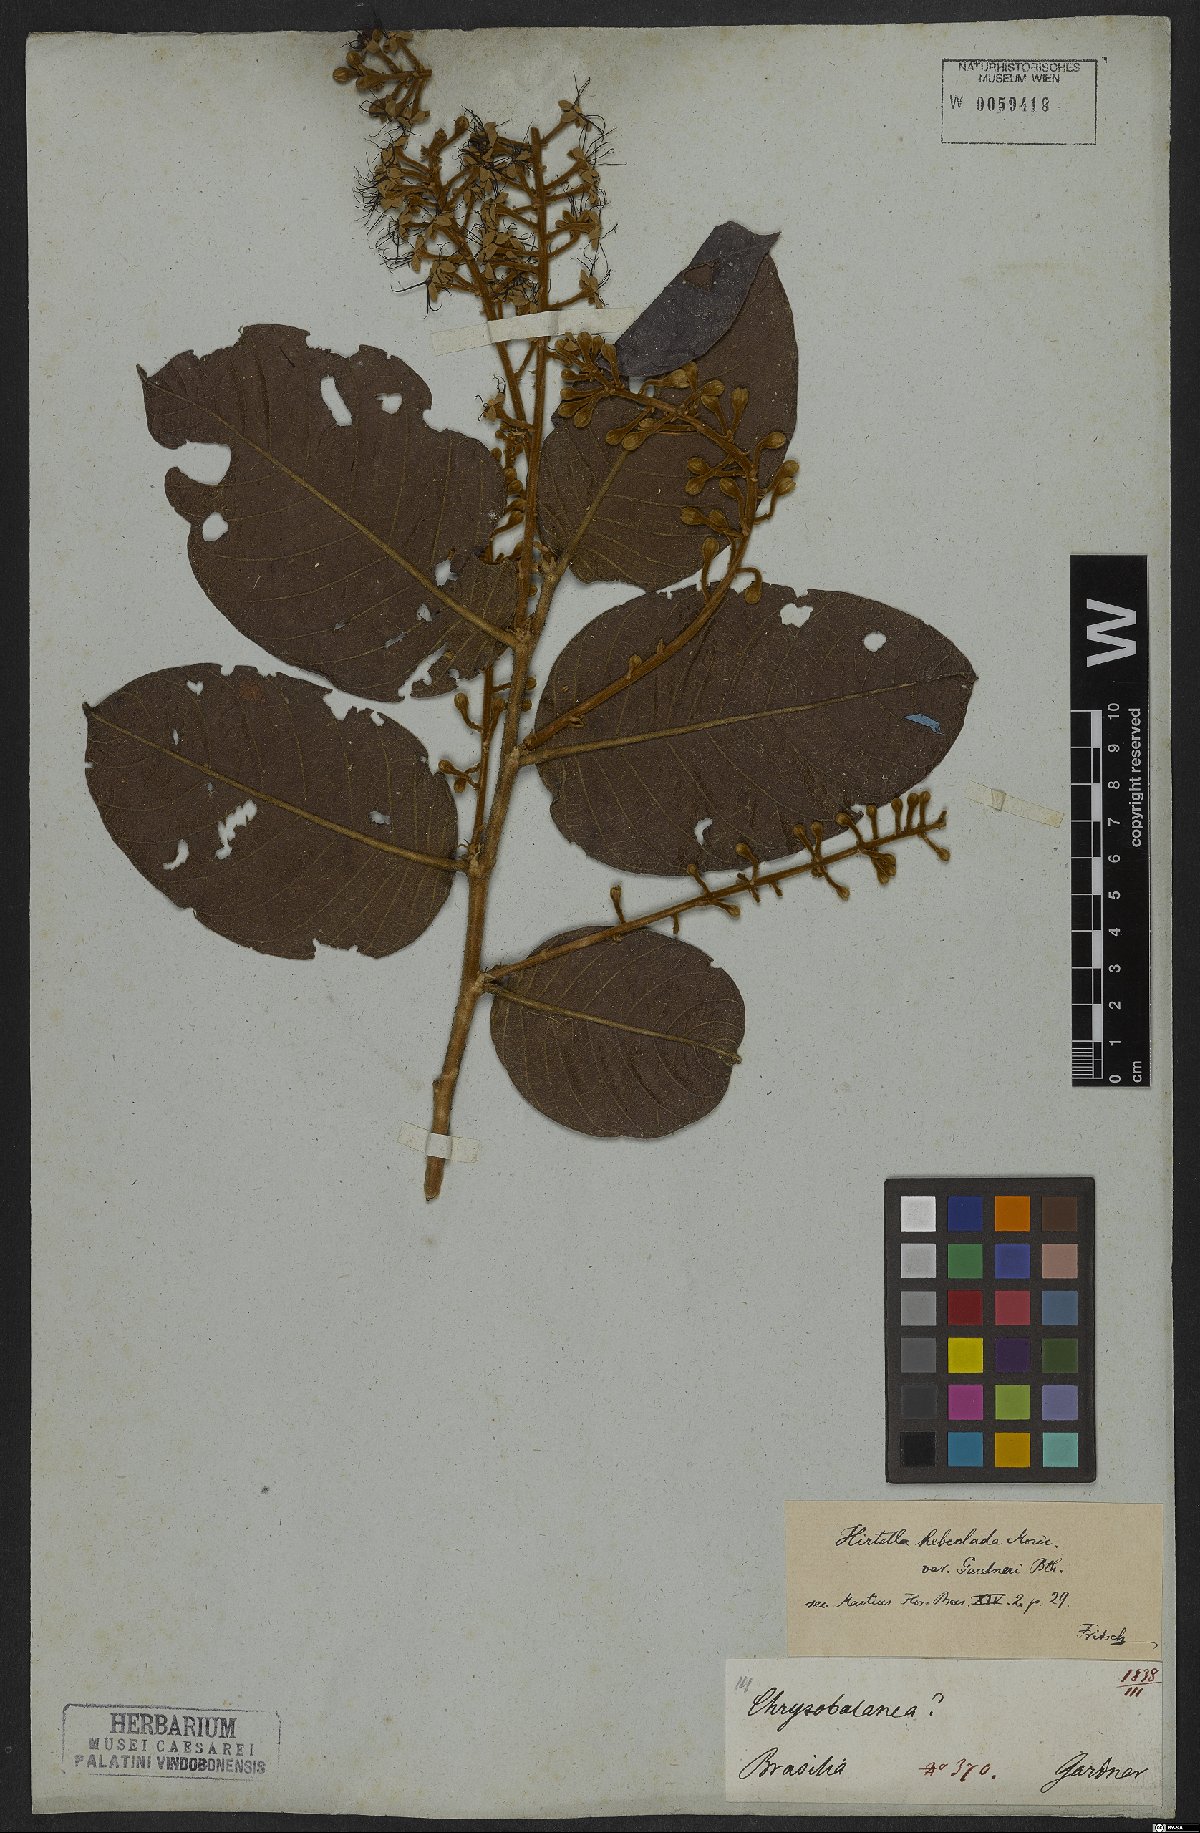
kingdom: Plantae
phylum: Tracheophyta
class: Magnoliopsida
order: Malpighiales
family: Chrysobalanaceae
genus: Hirtella
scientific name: Hirtella hebeclada
